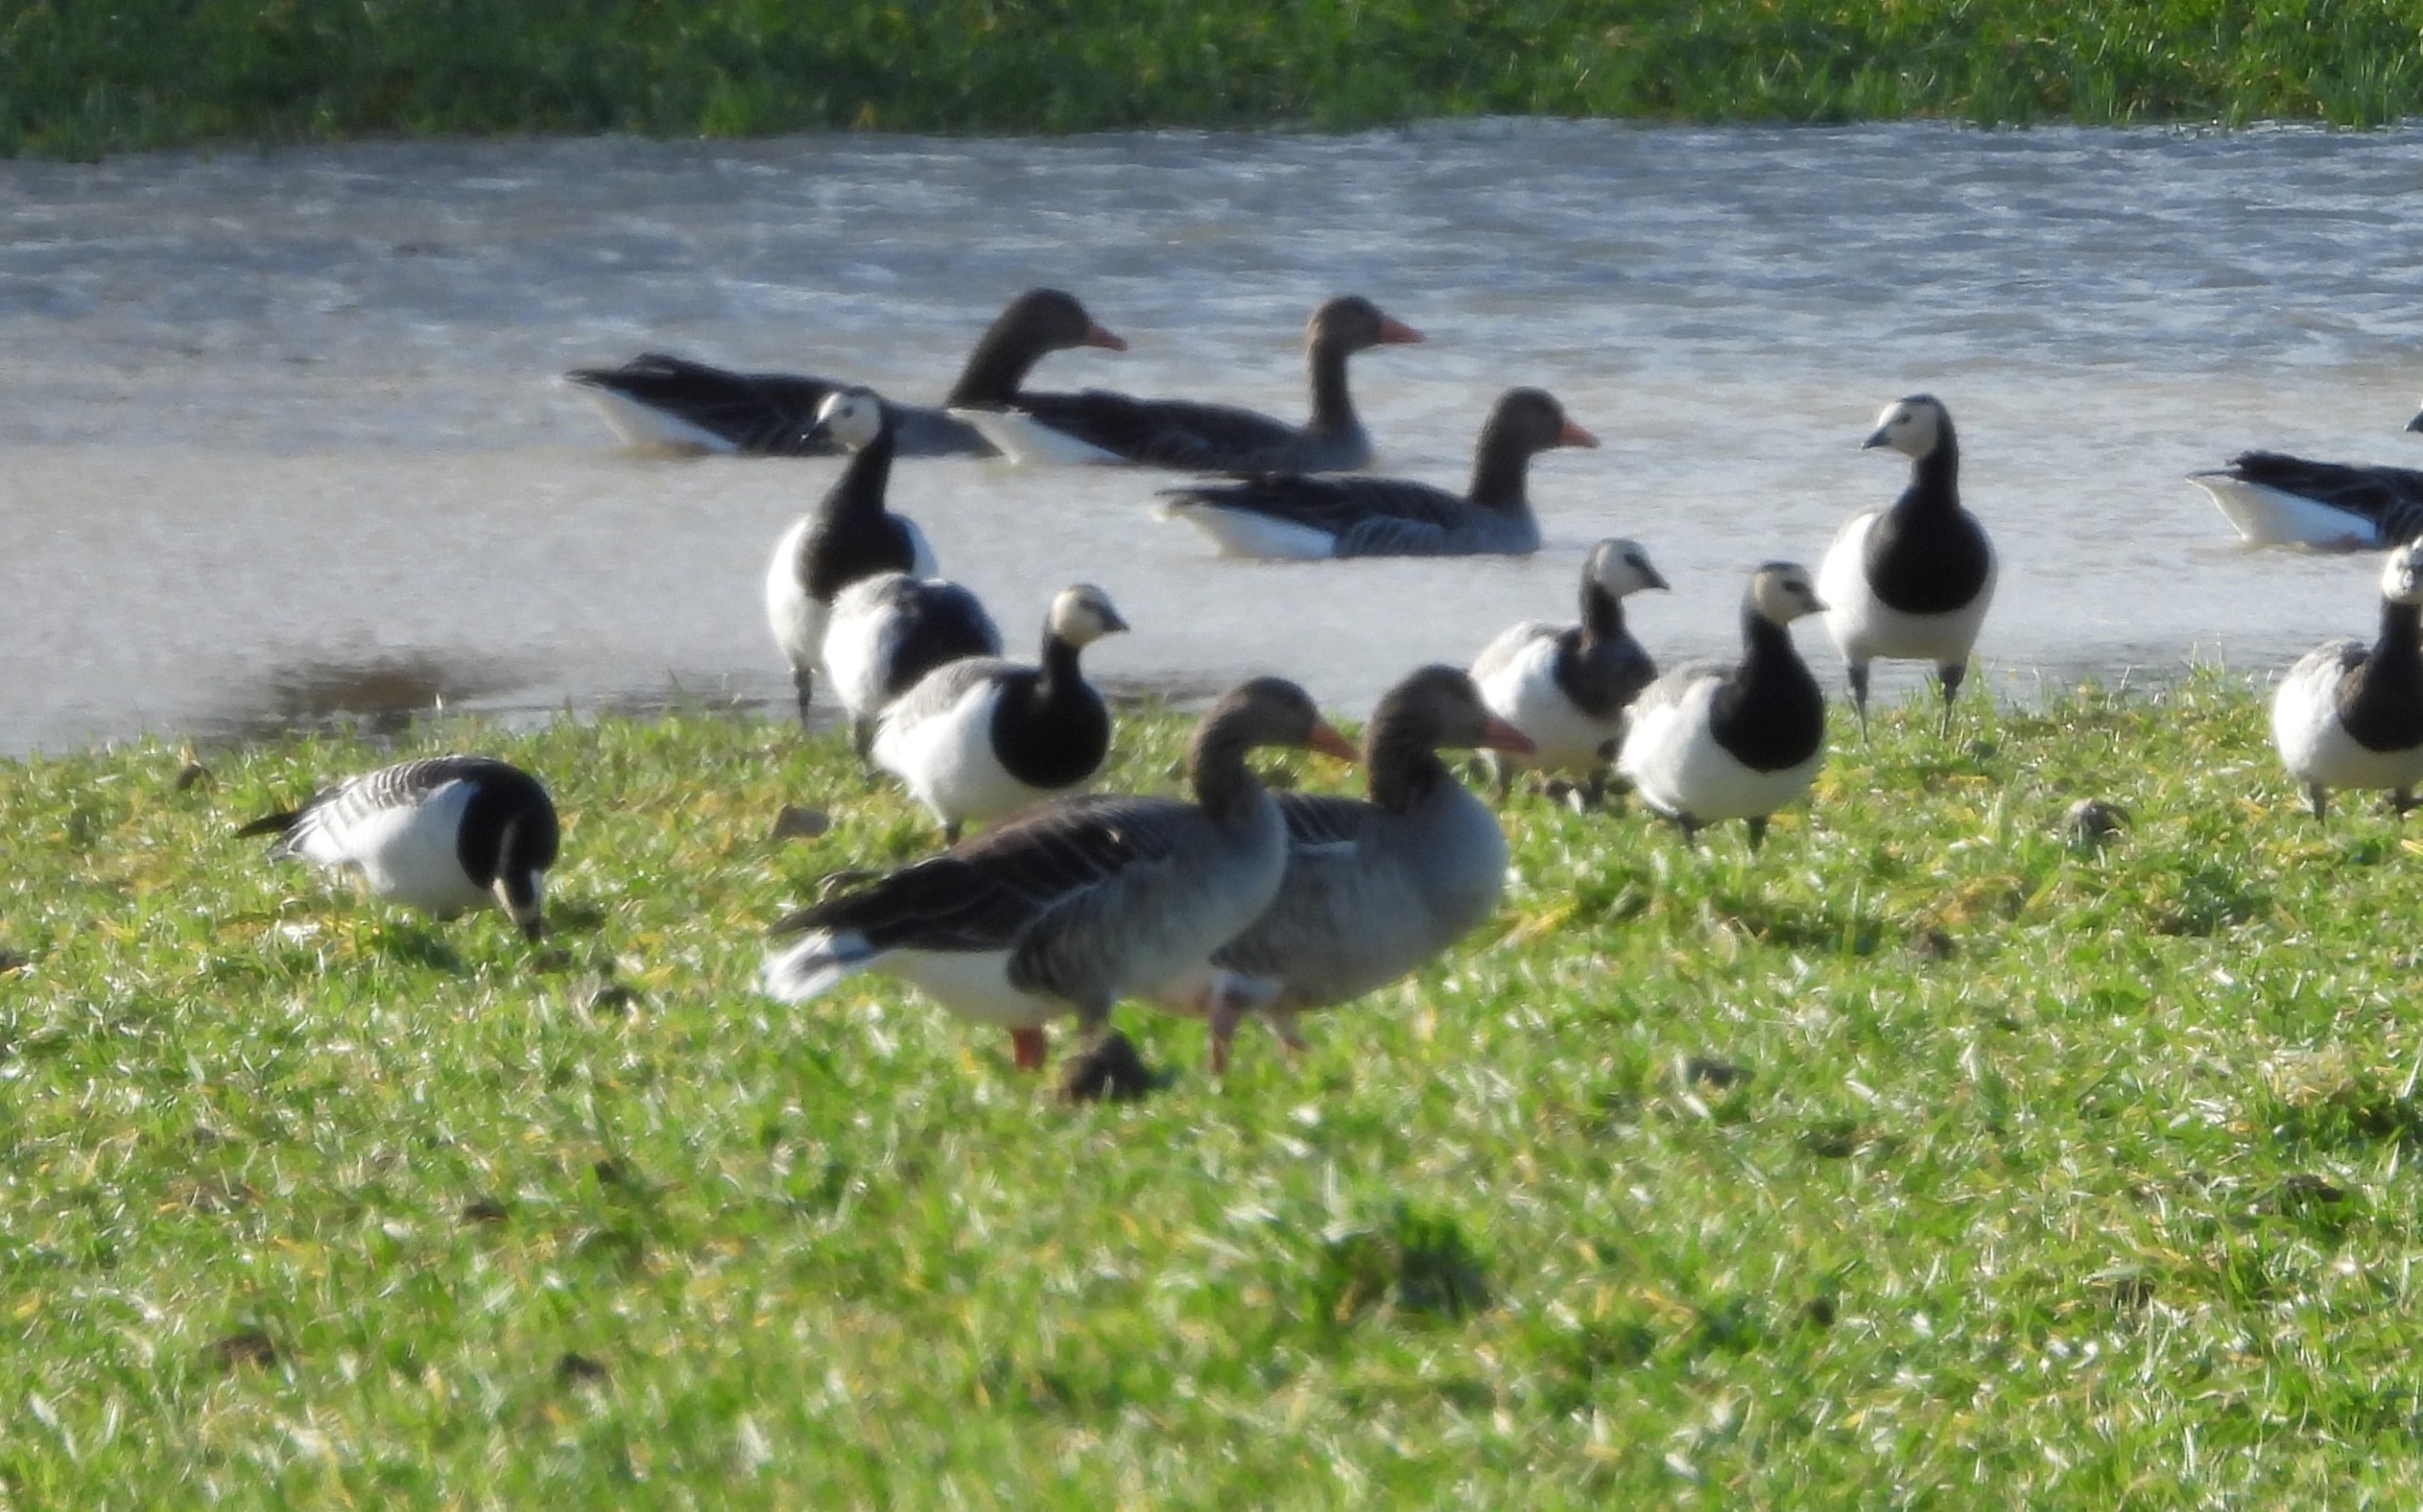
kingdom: Animalia
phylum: Chordata
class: Aves
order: Anseriformes
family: Anatidae
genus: Anser
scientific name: Anser anser
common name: Grågås
